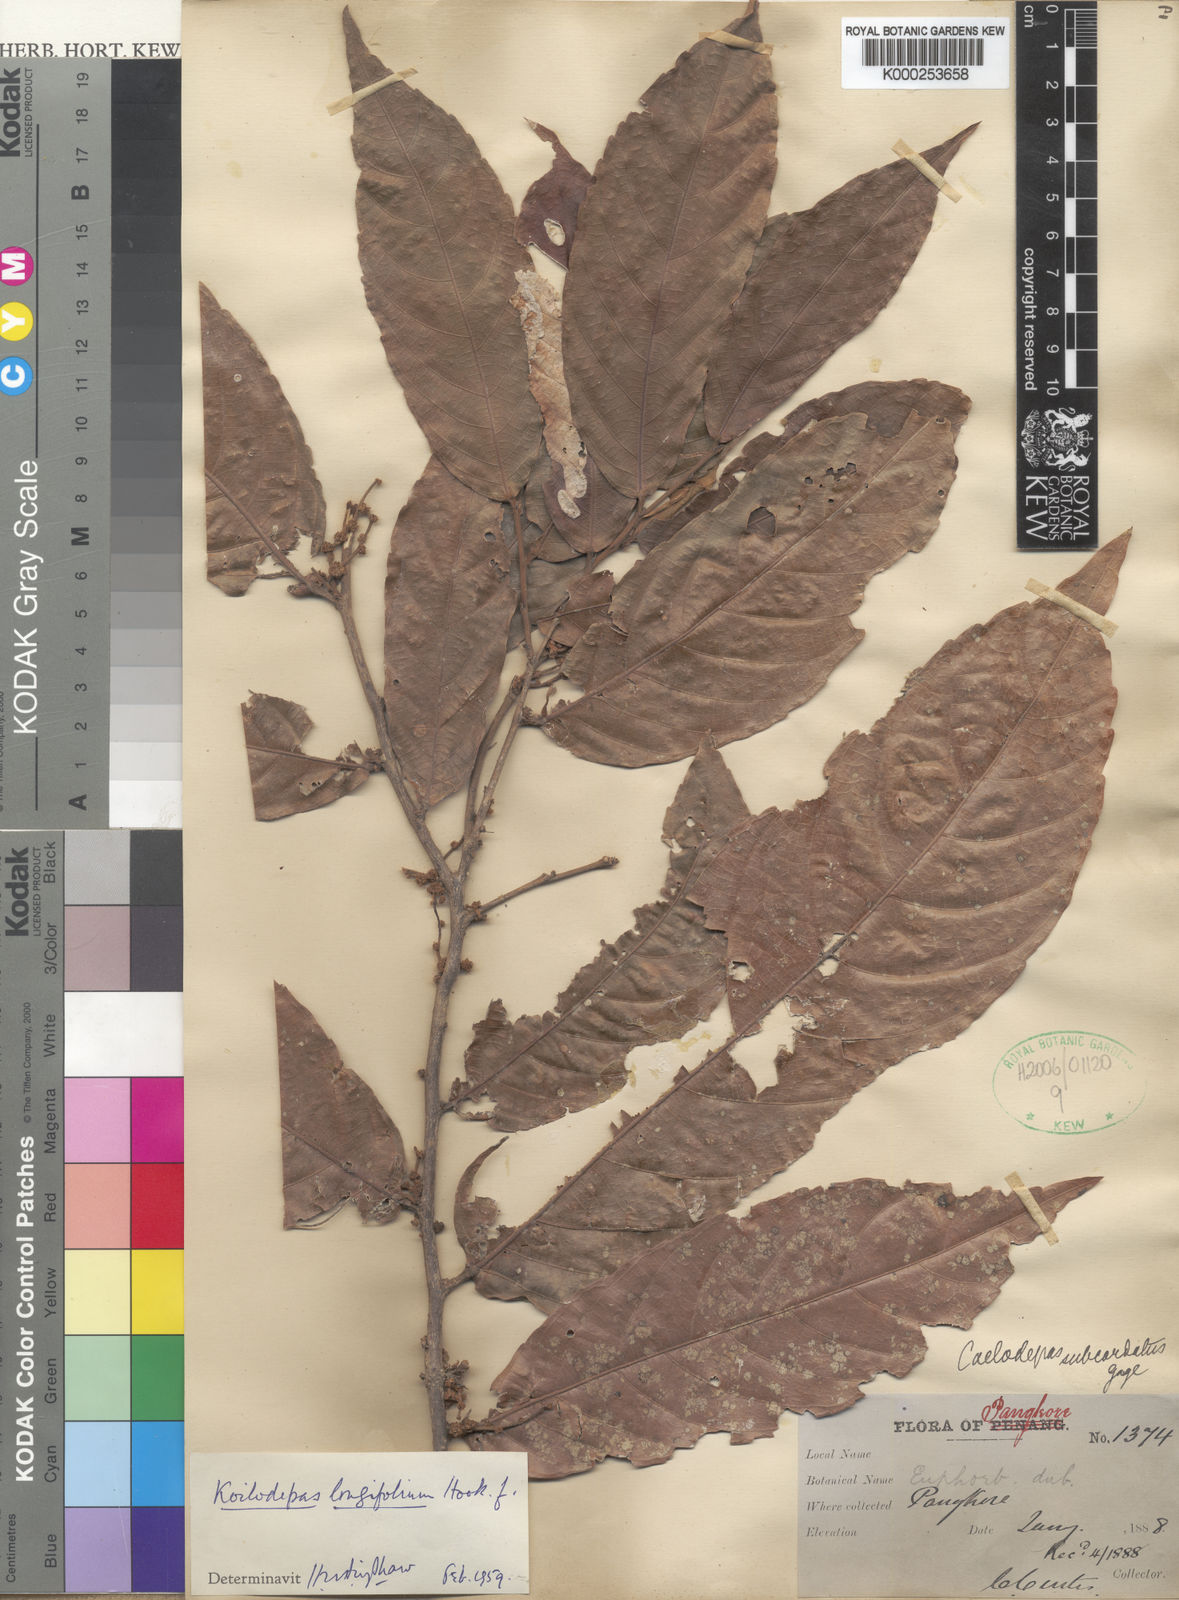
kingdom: Plantae
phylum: Tracheophyta
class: Magnoliopsida
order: Malpighiales
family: Euphorbiaceae
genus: Koilodepas
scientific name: Koilodepas longifolium
